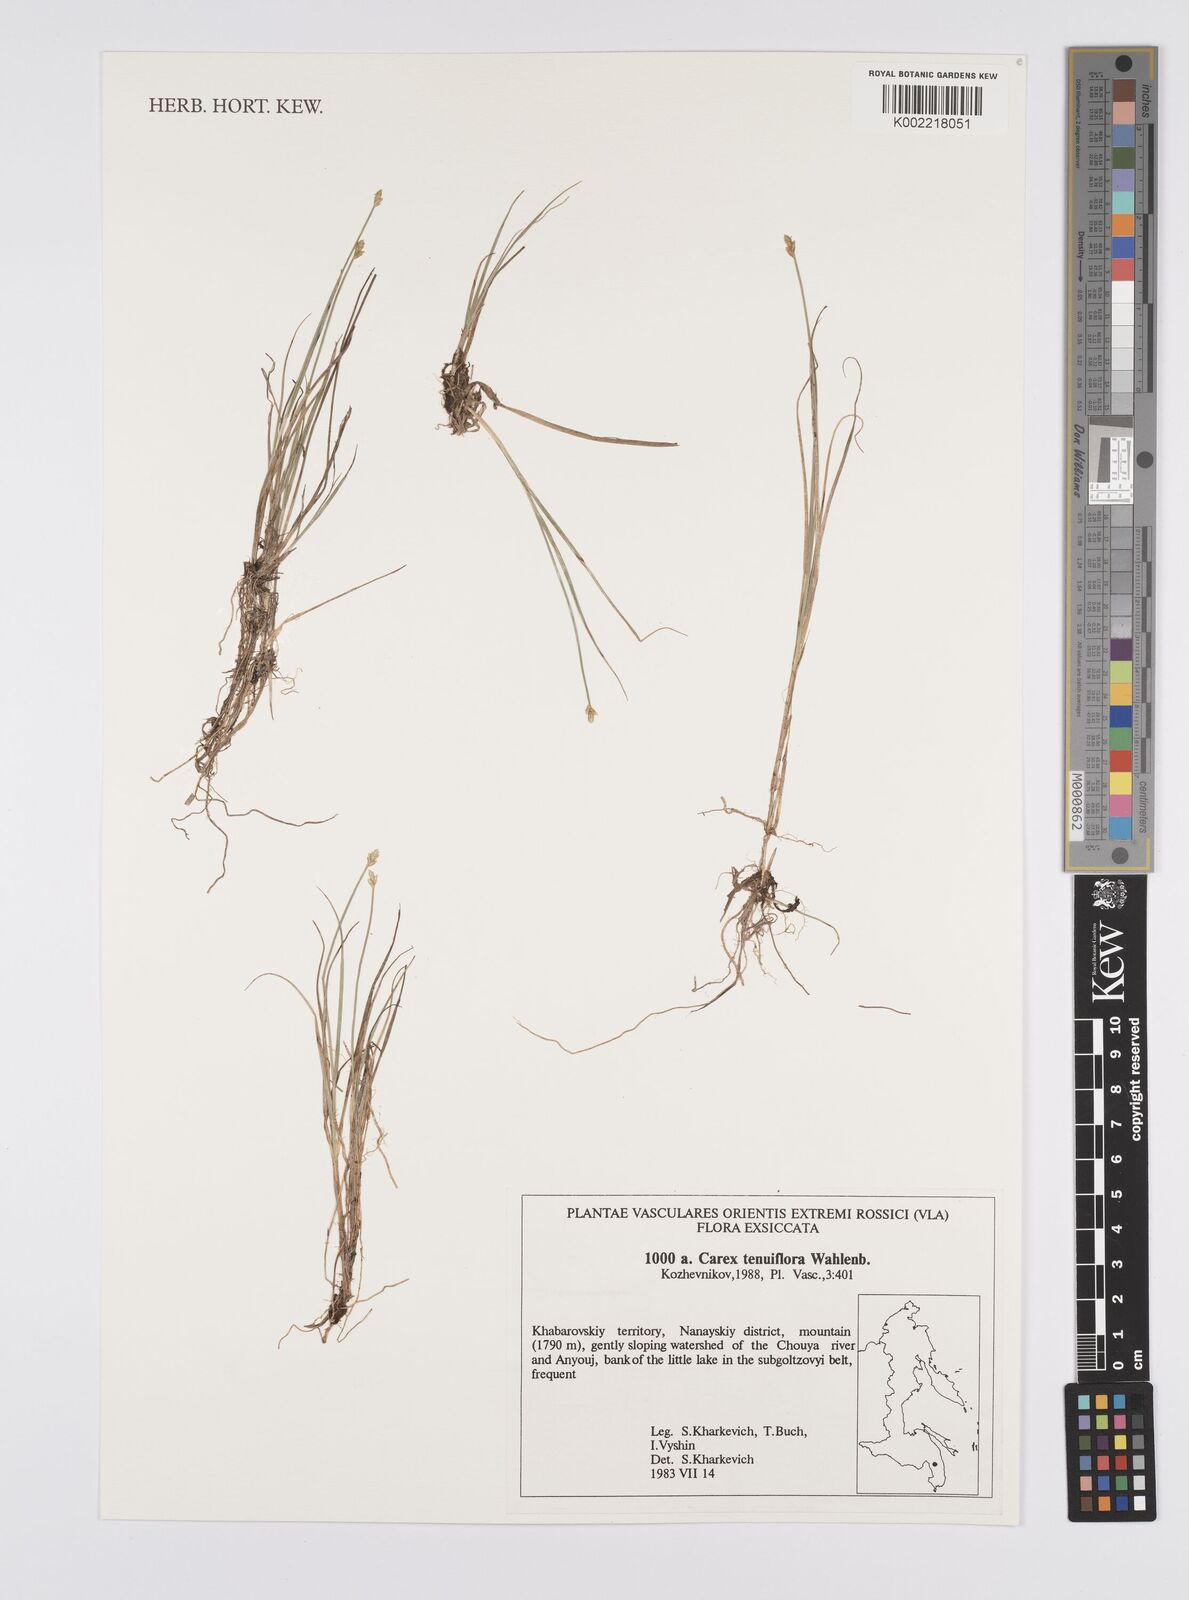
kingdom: Plantae
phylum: Tracheophyta
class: Liliopsida
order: Poales
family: Cyperaceae
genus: Carex
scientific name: Carex tenuiflora
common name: Sparse-flowered sedge
